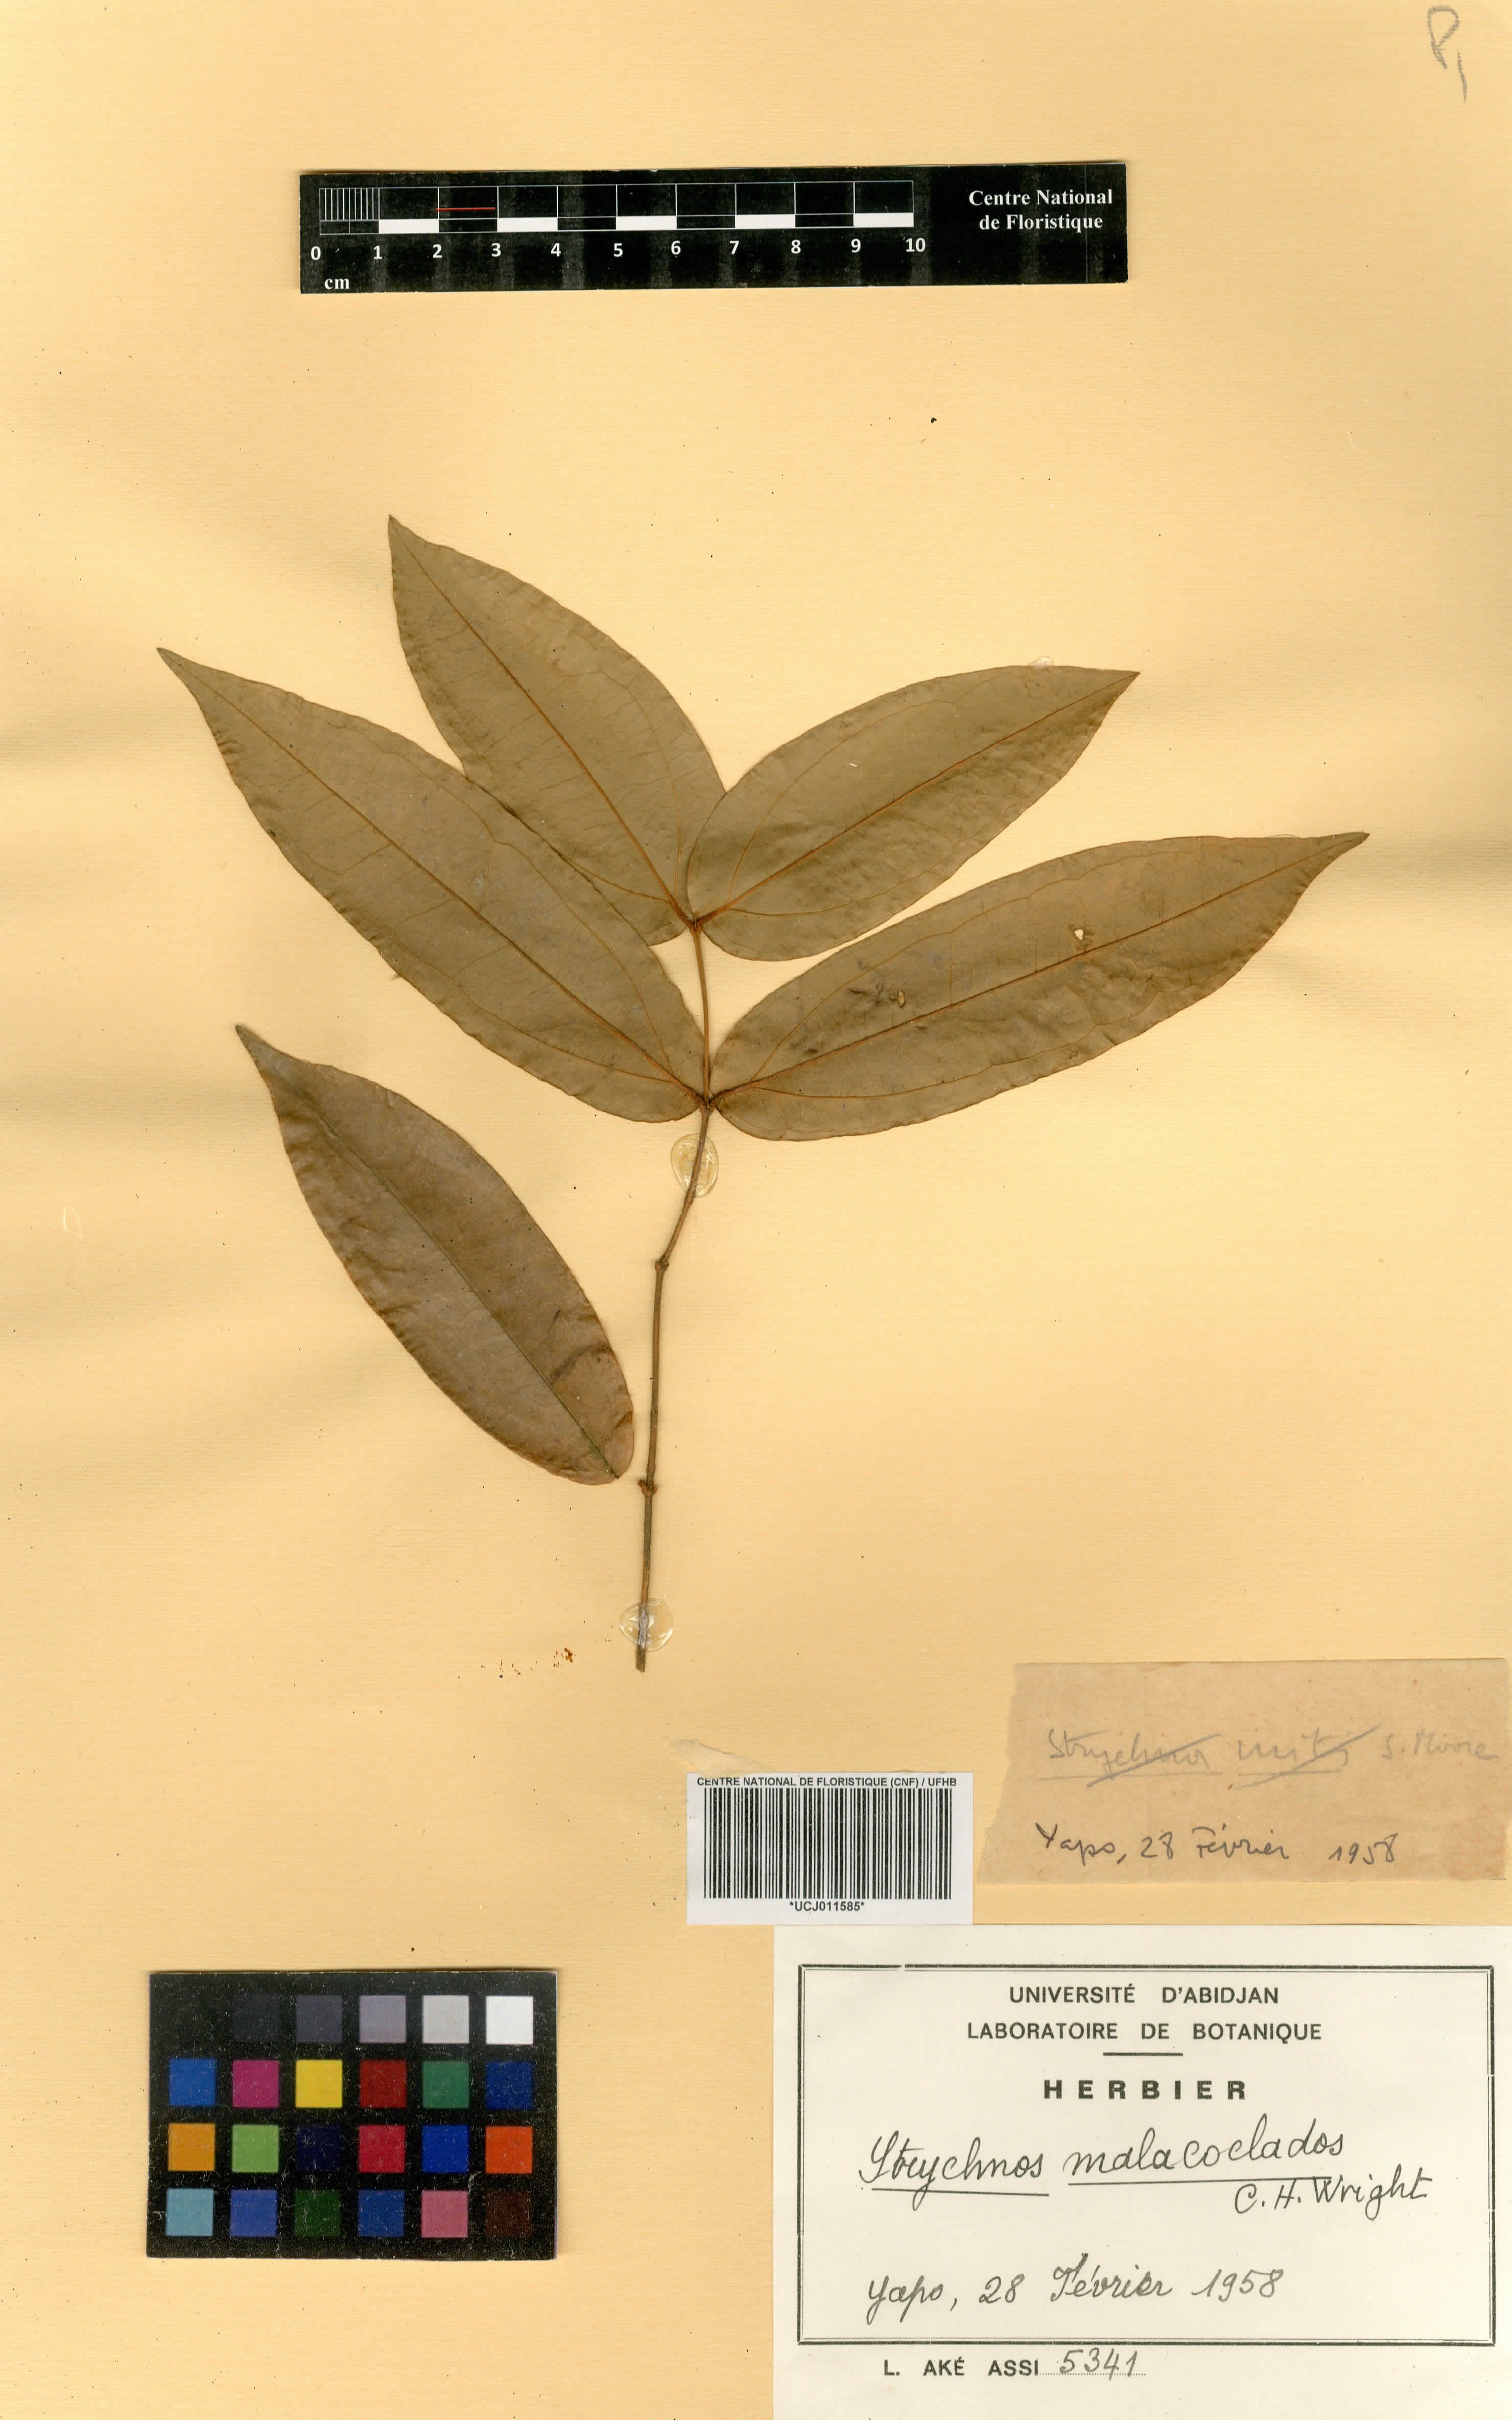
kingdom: Plantae
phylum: Tracheophyta
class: Magnoliopsida
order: Gentianales
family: Loganiaceae
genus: Strychnos
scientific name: Strychnos malacoclados
